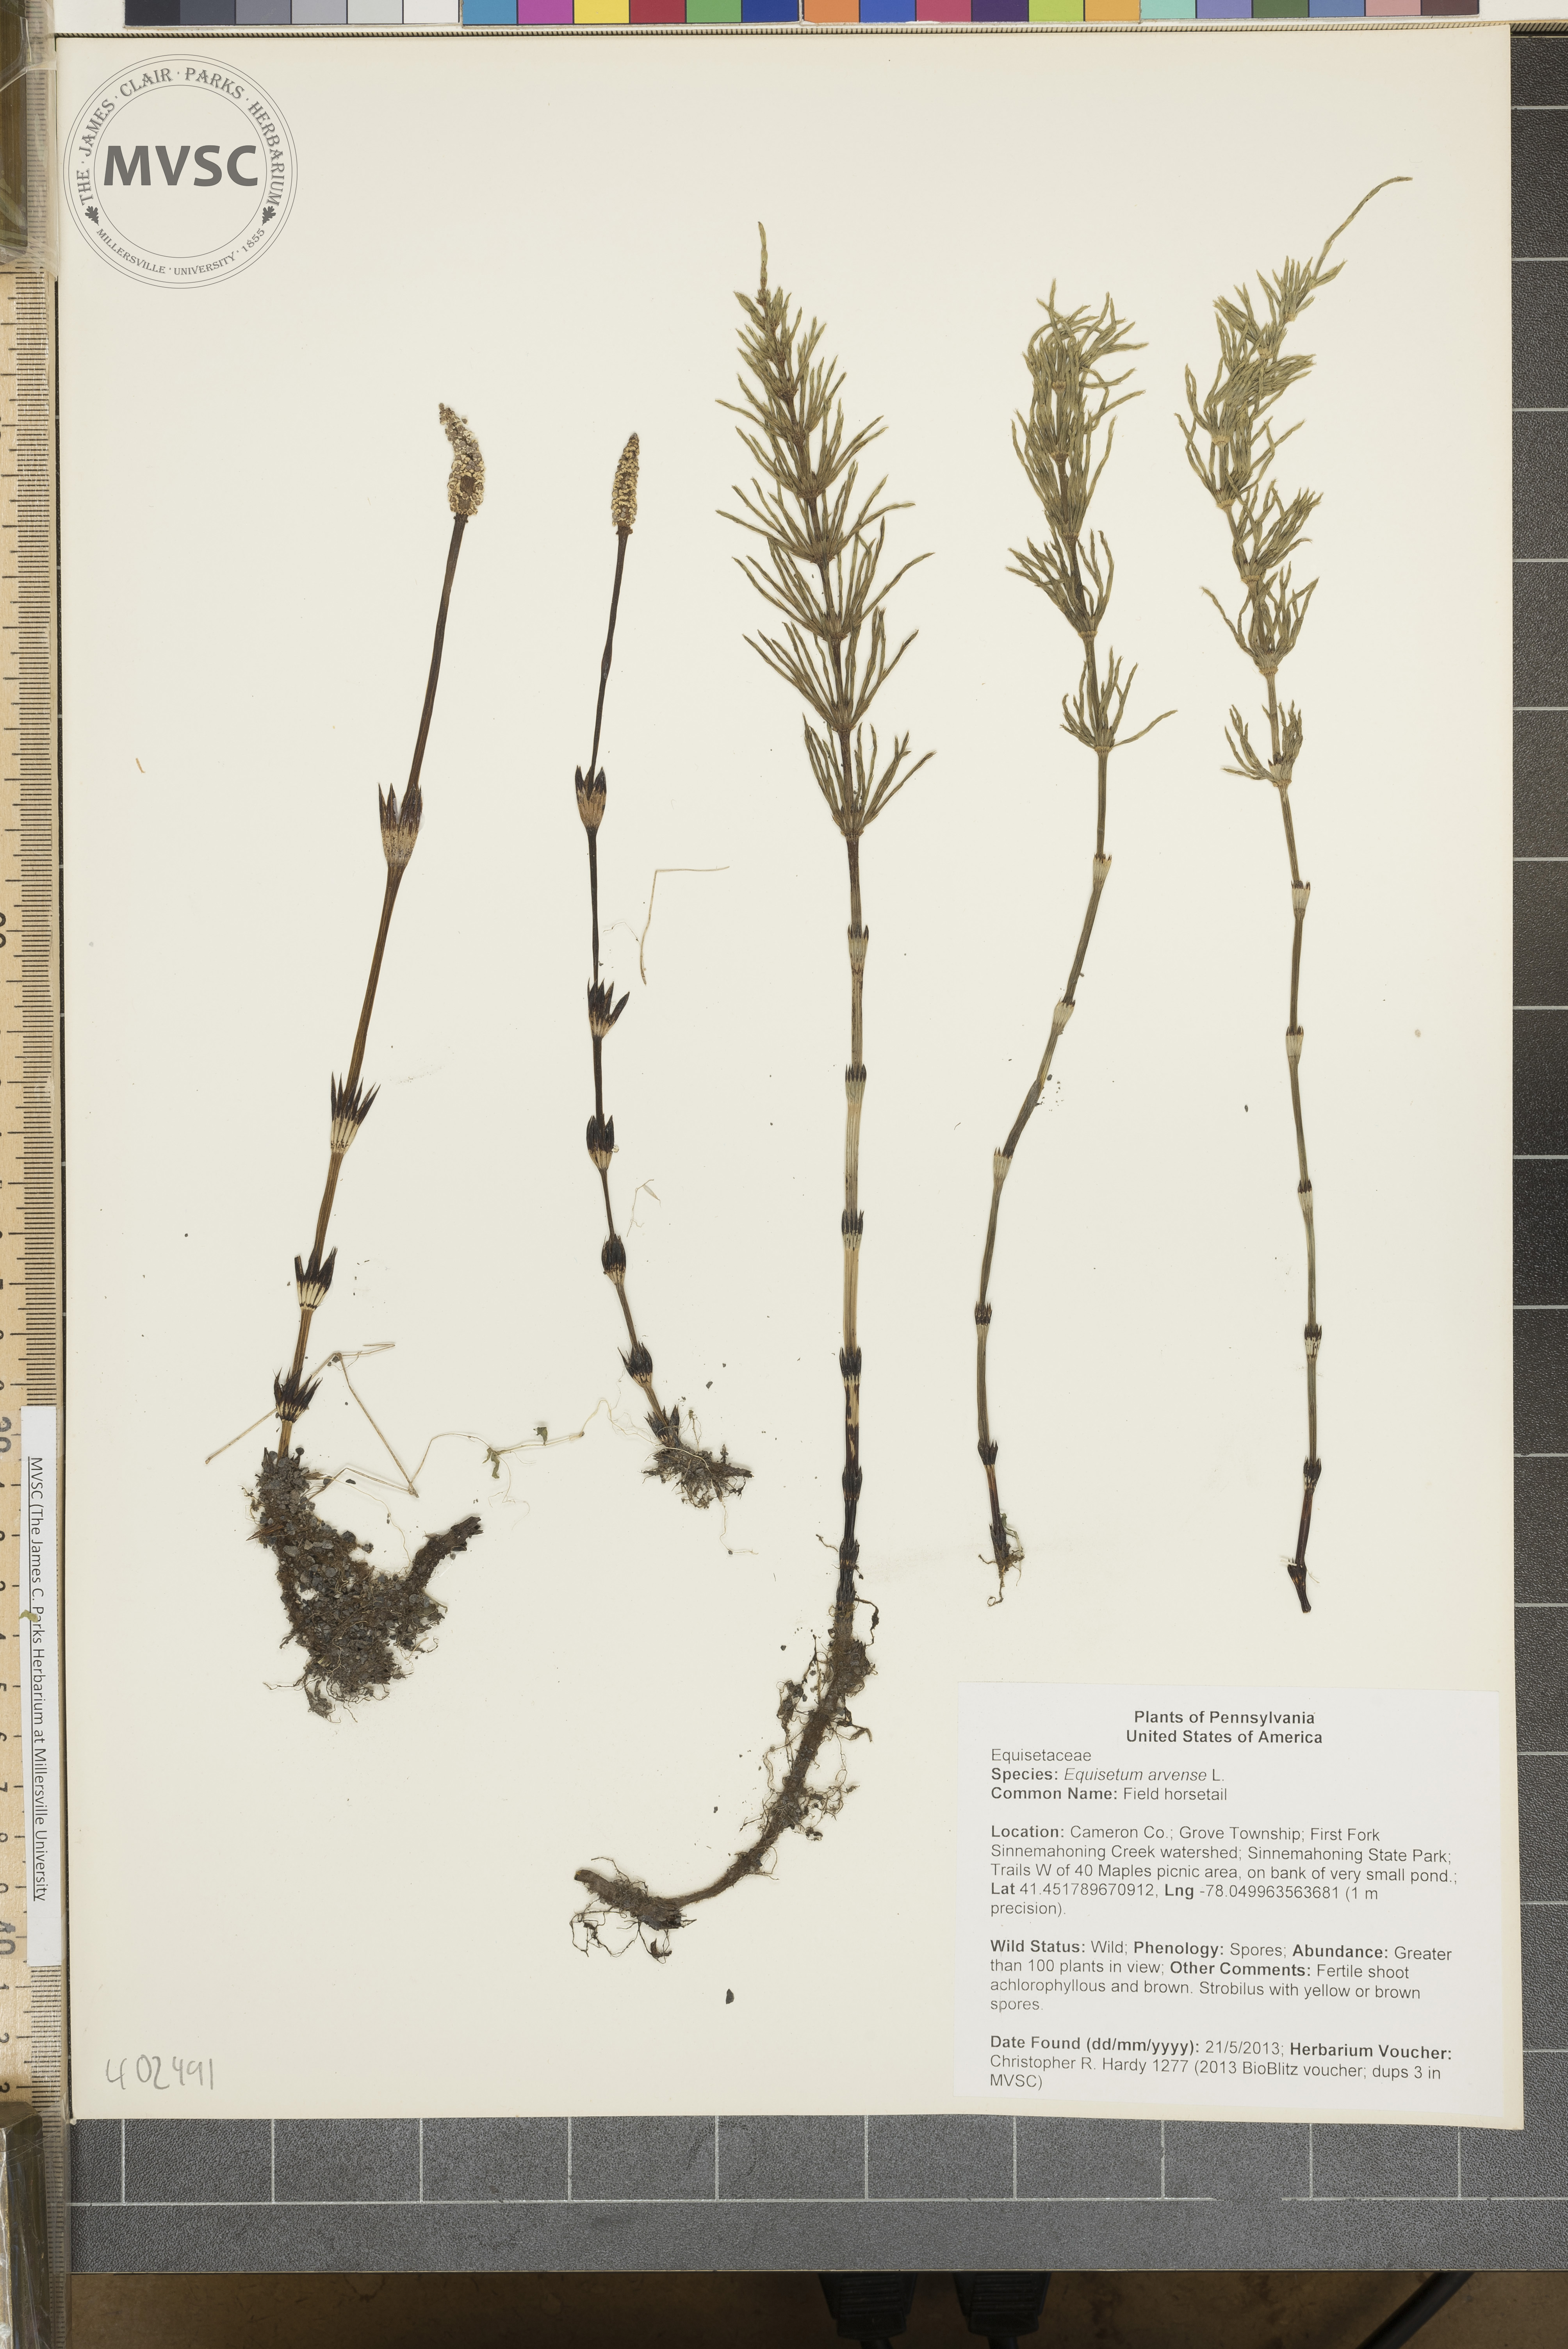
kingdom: Plantae
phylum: Tracheophyta
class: Polypodiopsida
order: Equisetales
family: Equisetaceae
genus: Equisetum
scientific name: Equisetum arvense
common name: Field horsetail
